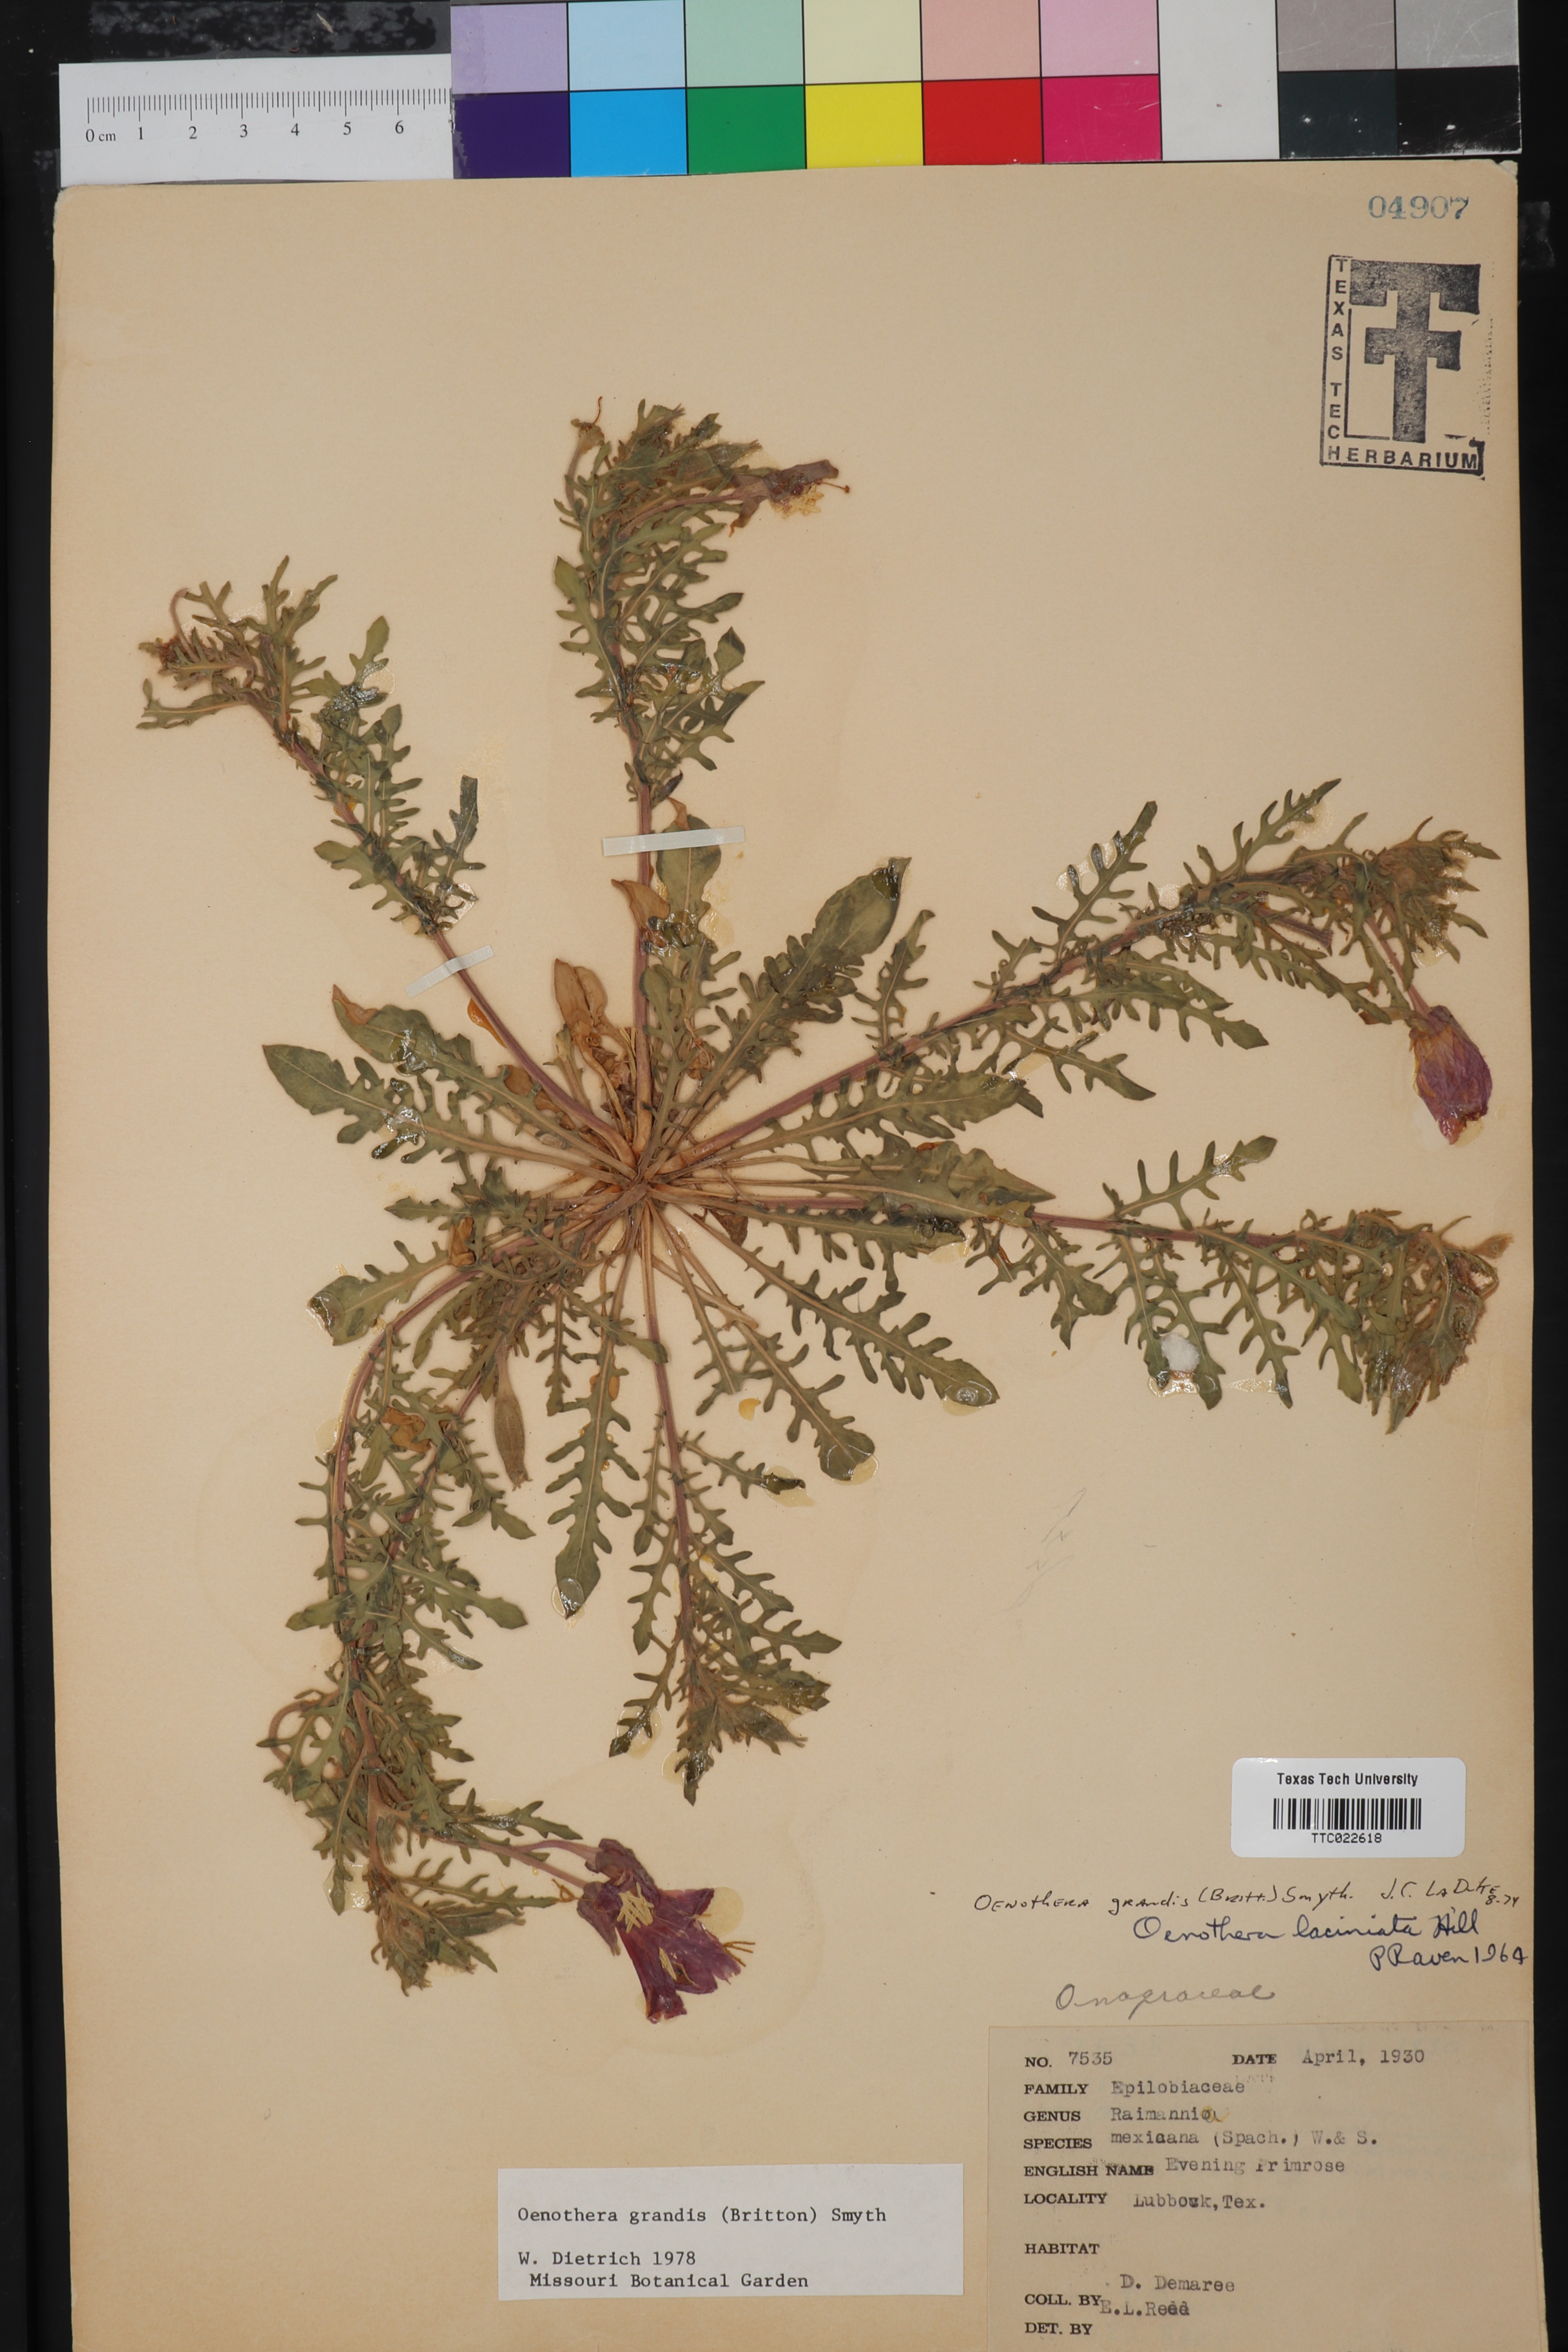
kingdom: Plantae
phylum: Tracheophyta
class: Magnoliopsida
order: Myrtales
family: Onagraceae
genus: Oenothera
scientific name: Oenothera grandis
